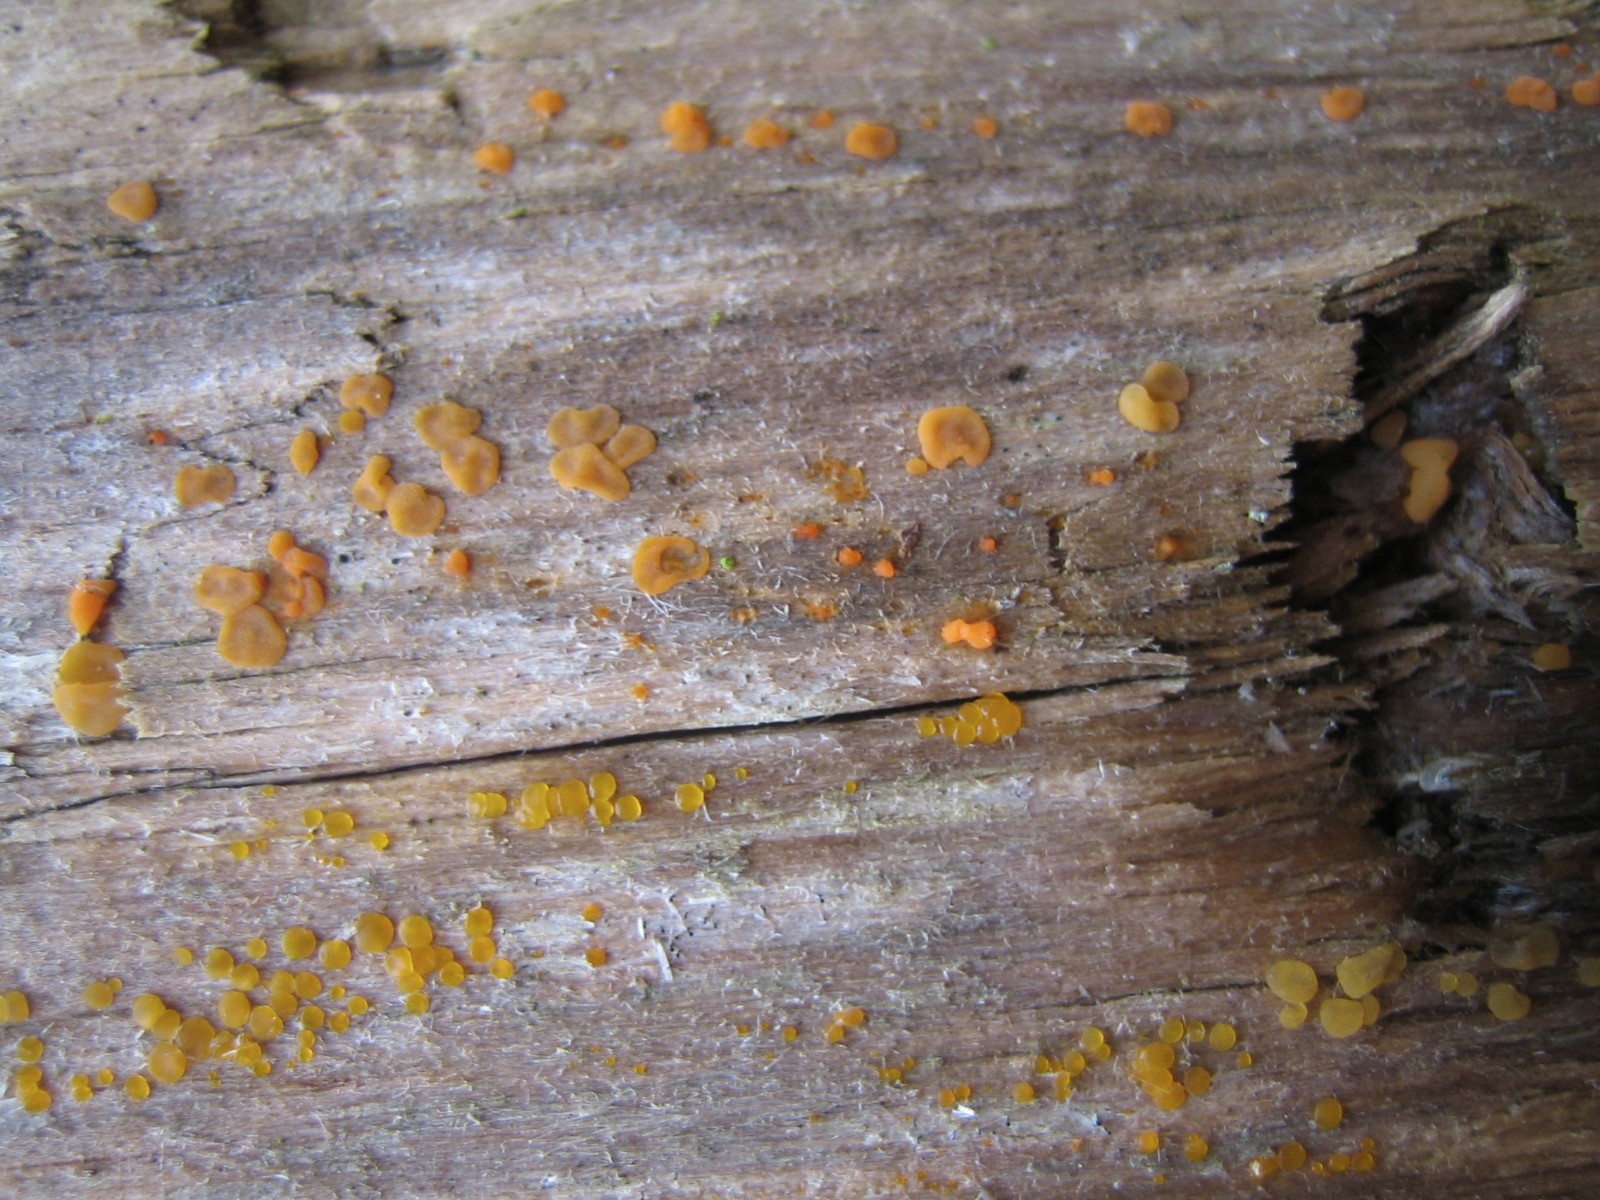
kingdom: Fungi
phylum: Basidiomycota
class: Dacrymycetes
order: Dacrymycetales
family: Dacrymycetaceae
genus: Dacrymyces
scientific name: Dacrymyces stillatus
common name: almindelig tåresvamp
